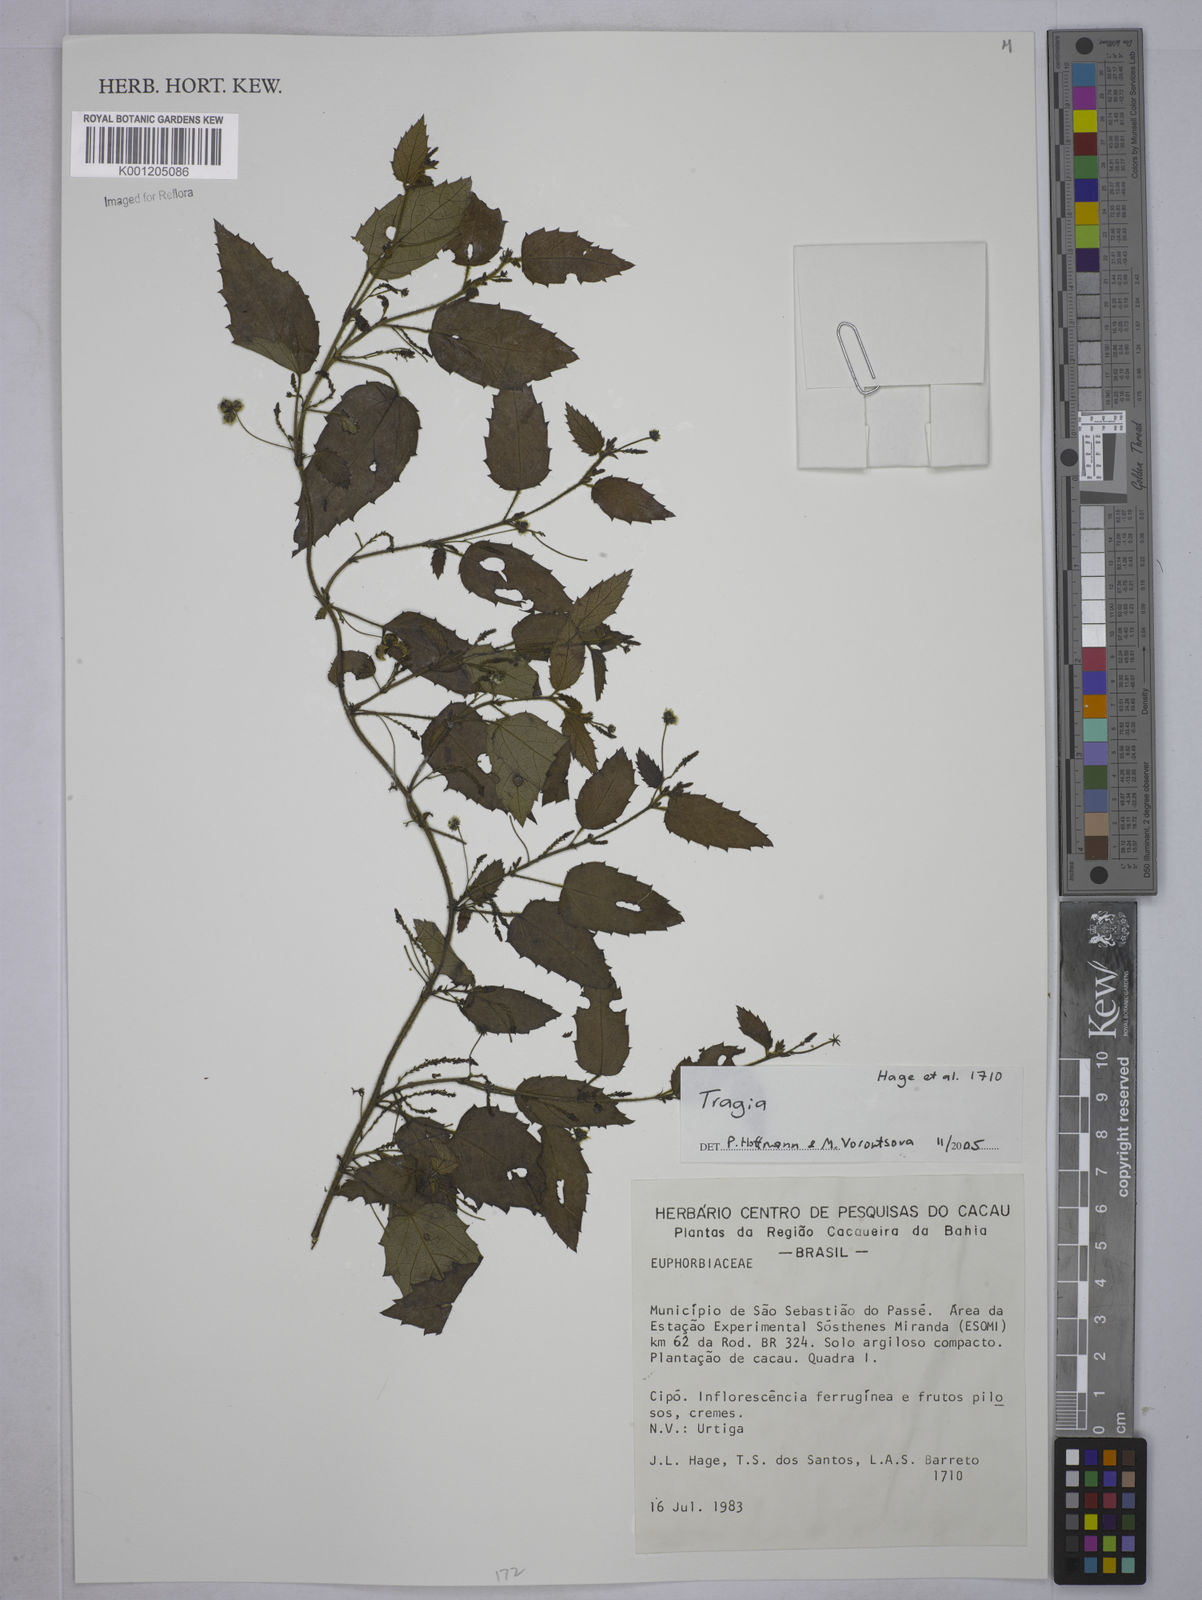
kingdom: Plantae
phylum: Tracheophyta
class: Magnoliopsida
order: Malpighiales
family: Euphorbiaceae
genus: Tragia
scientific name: Tragia
